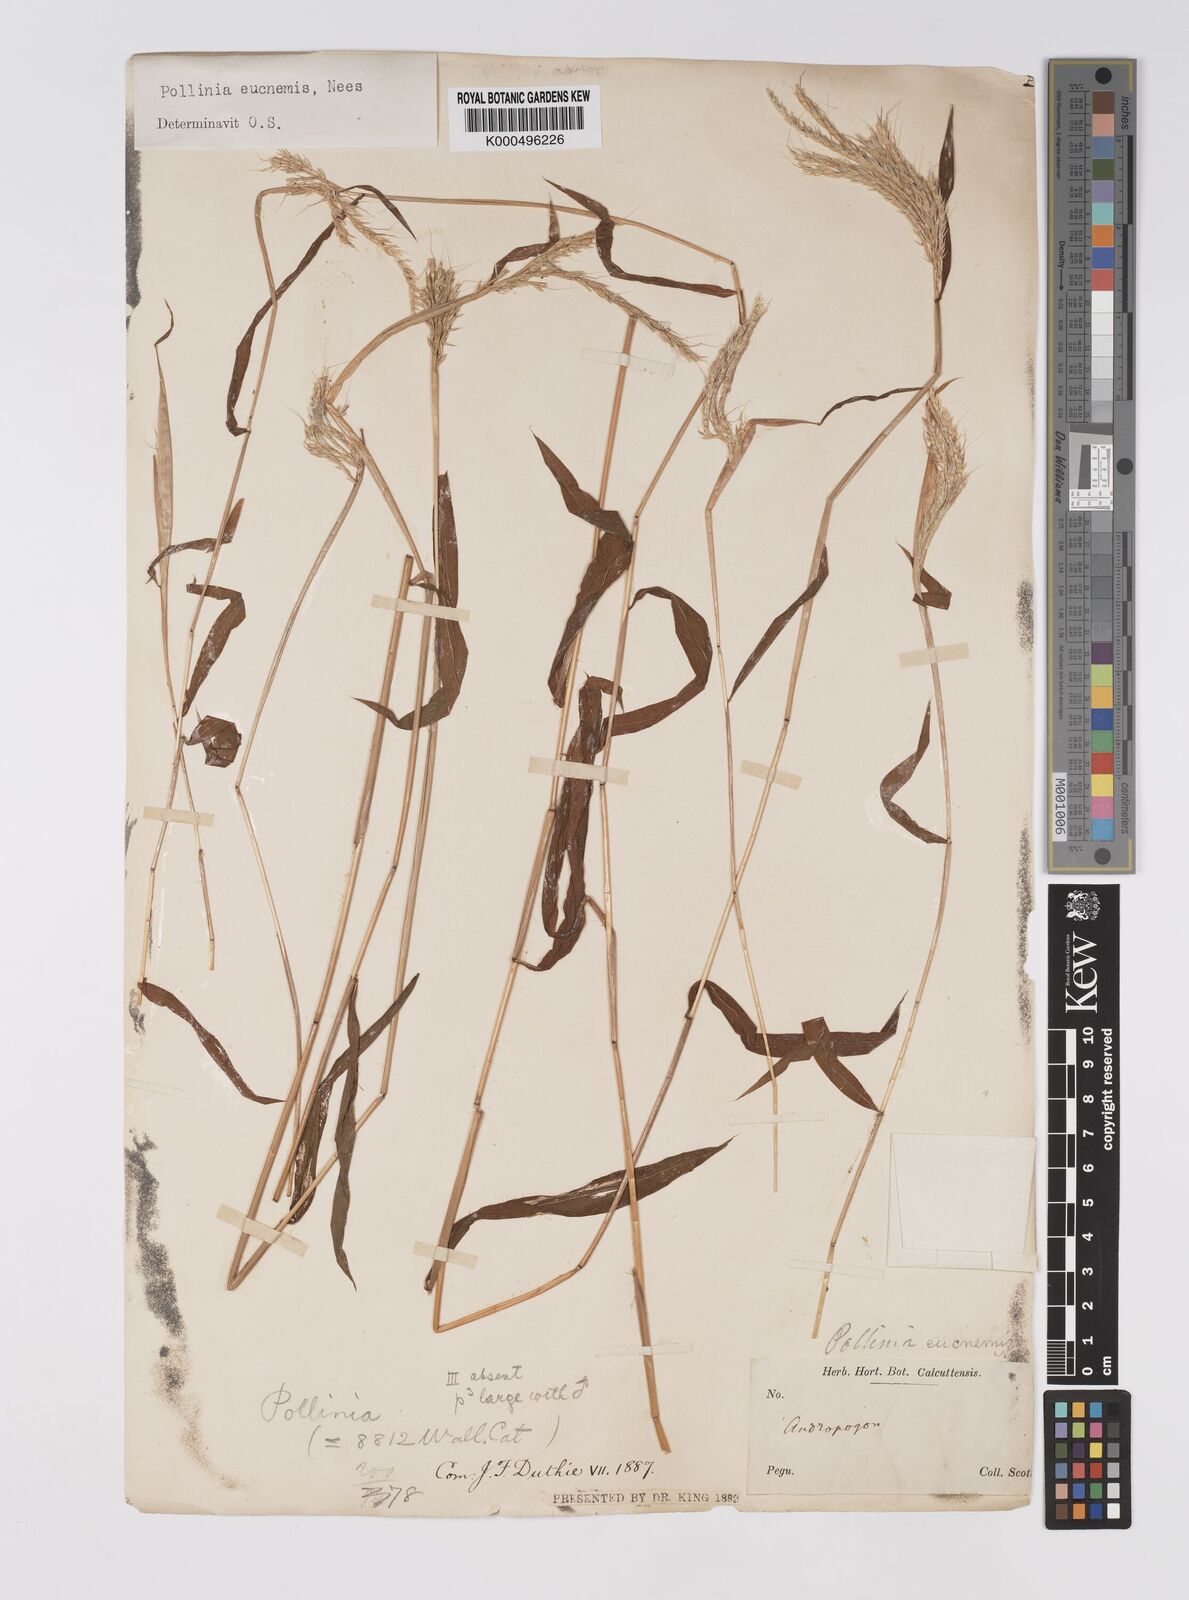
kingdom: Plantae
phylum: Tracheophyta
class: Liliopsida
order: Poales
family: Poaceae
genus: Microstegium
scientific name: Microstegium eucnemis
